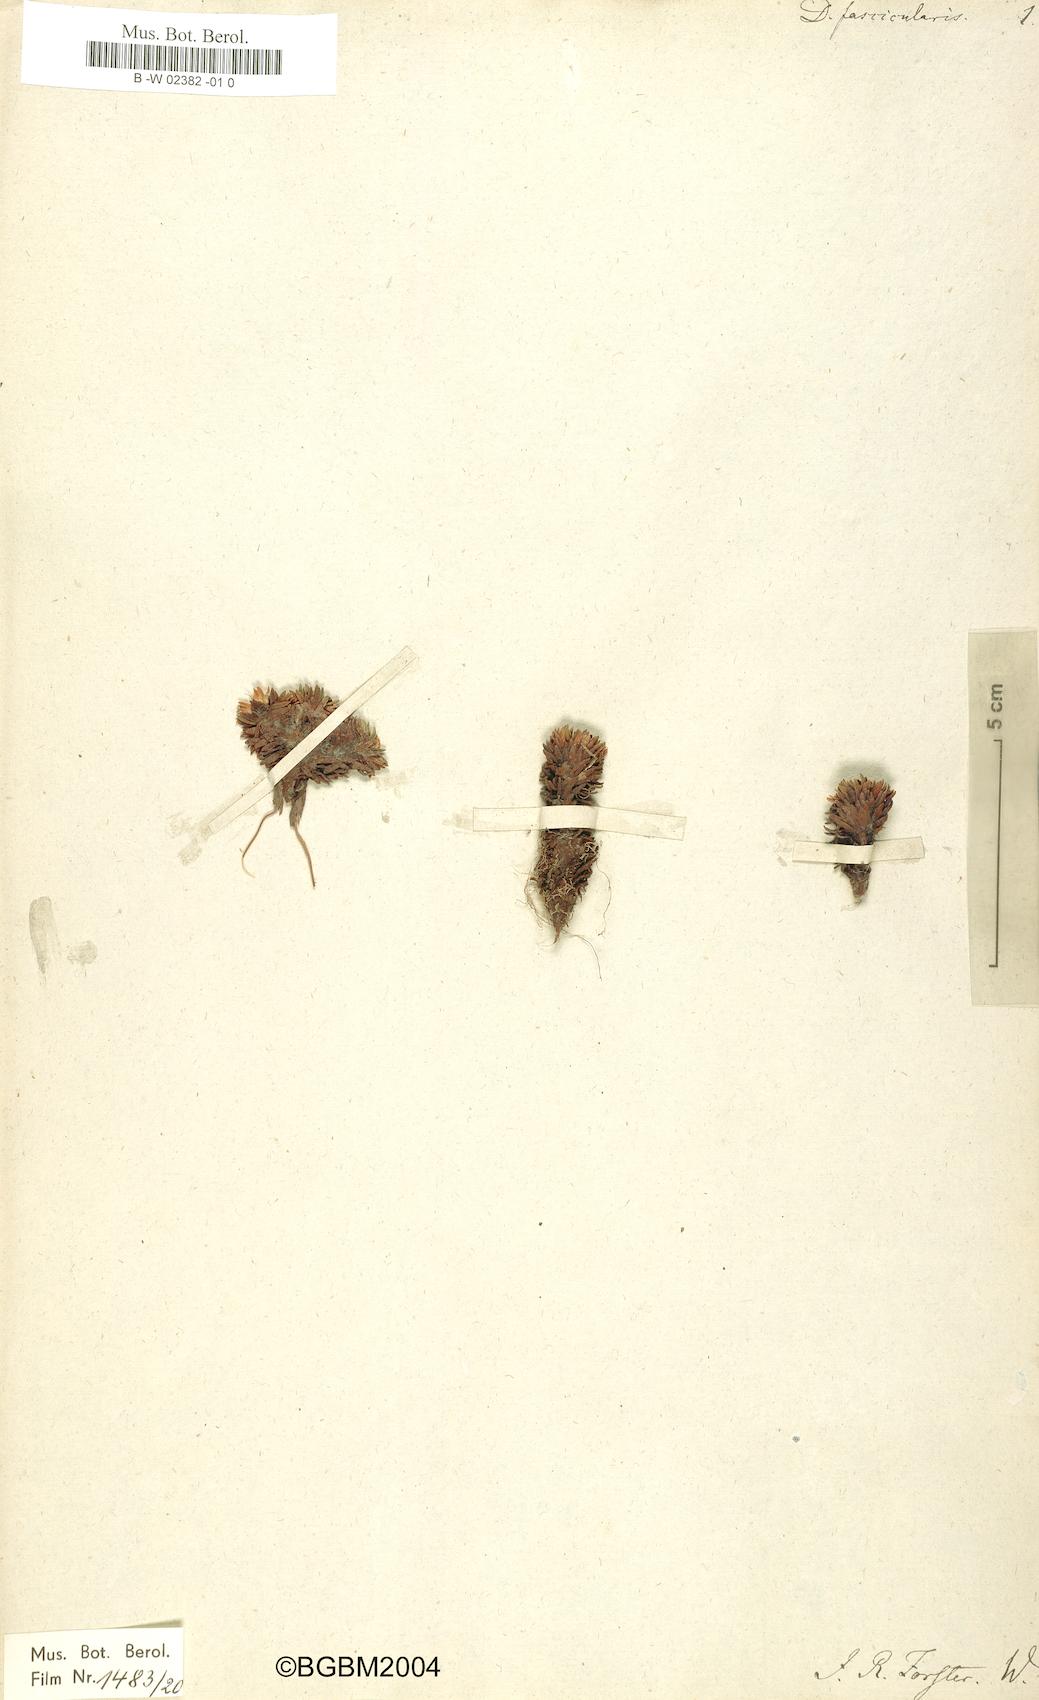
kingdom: Plantae
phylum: Tracheophyta
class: Magnoliopsida
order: Asterales
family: Stylidiaceae
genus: Donatia
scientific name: Donatia fascicularis
